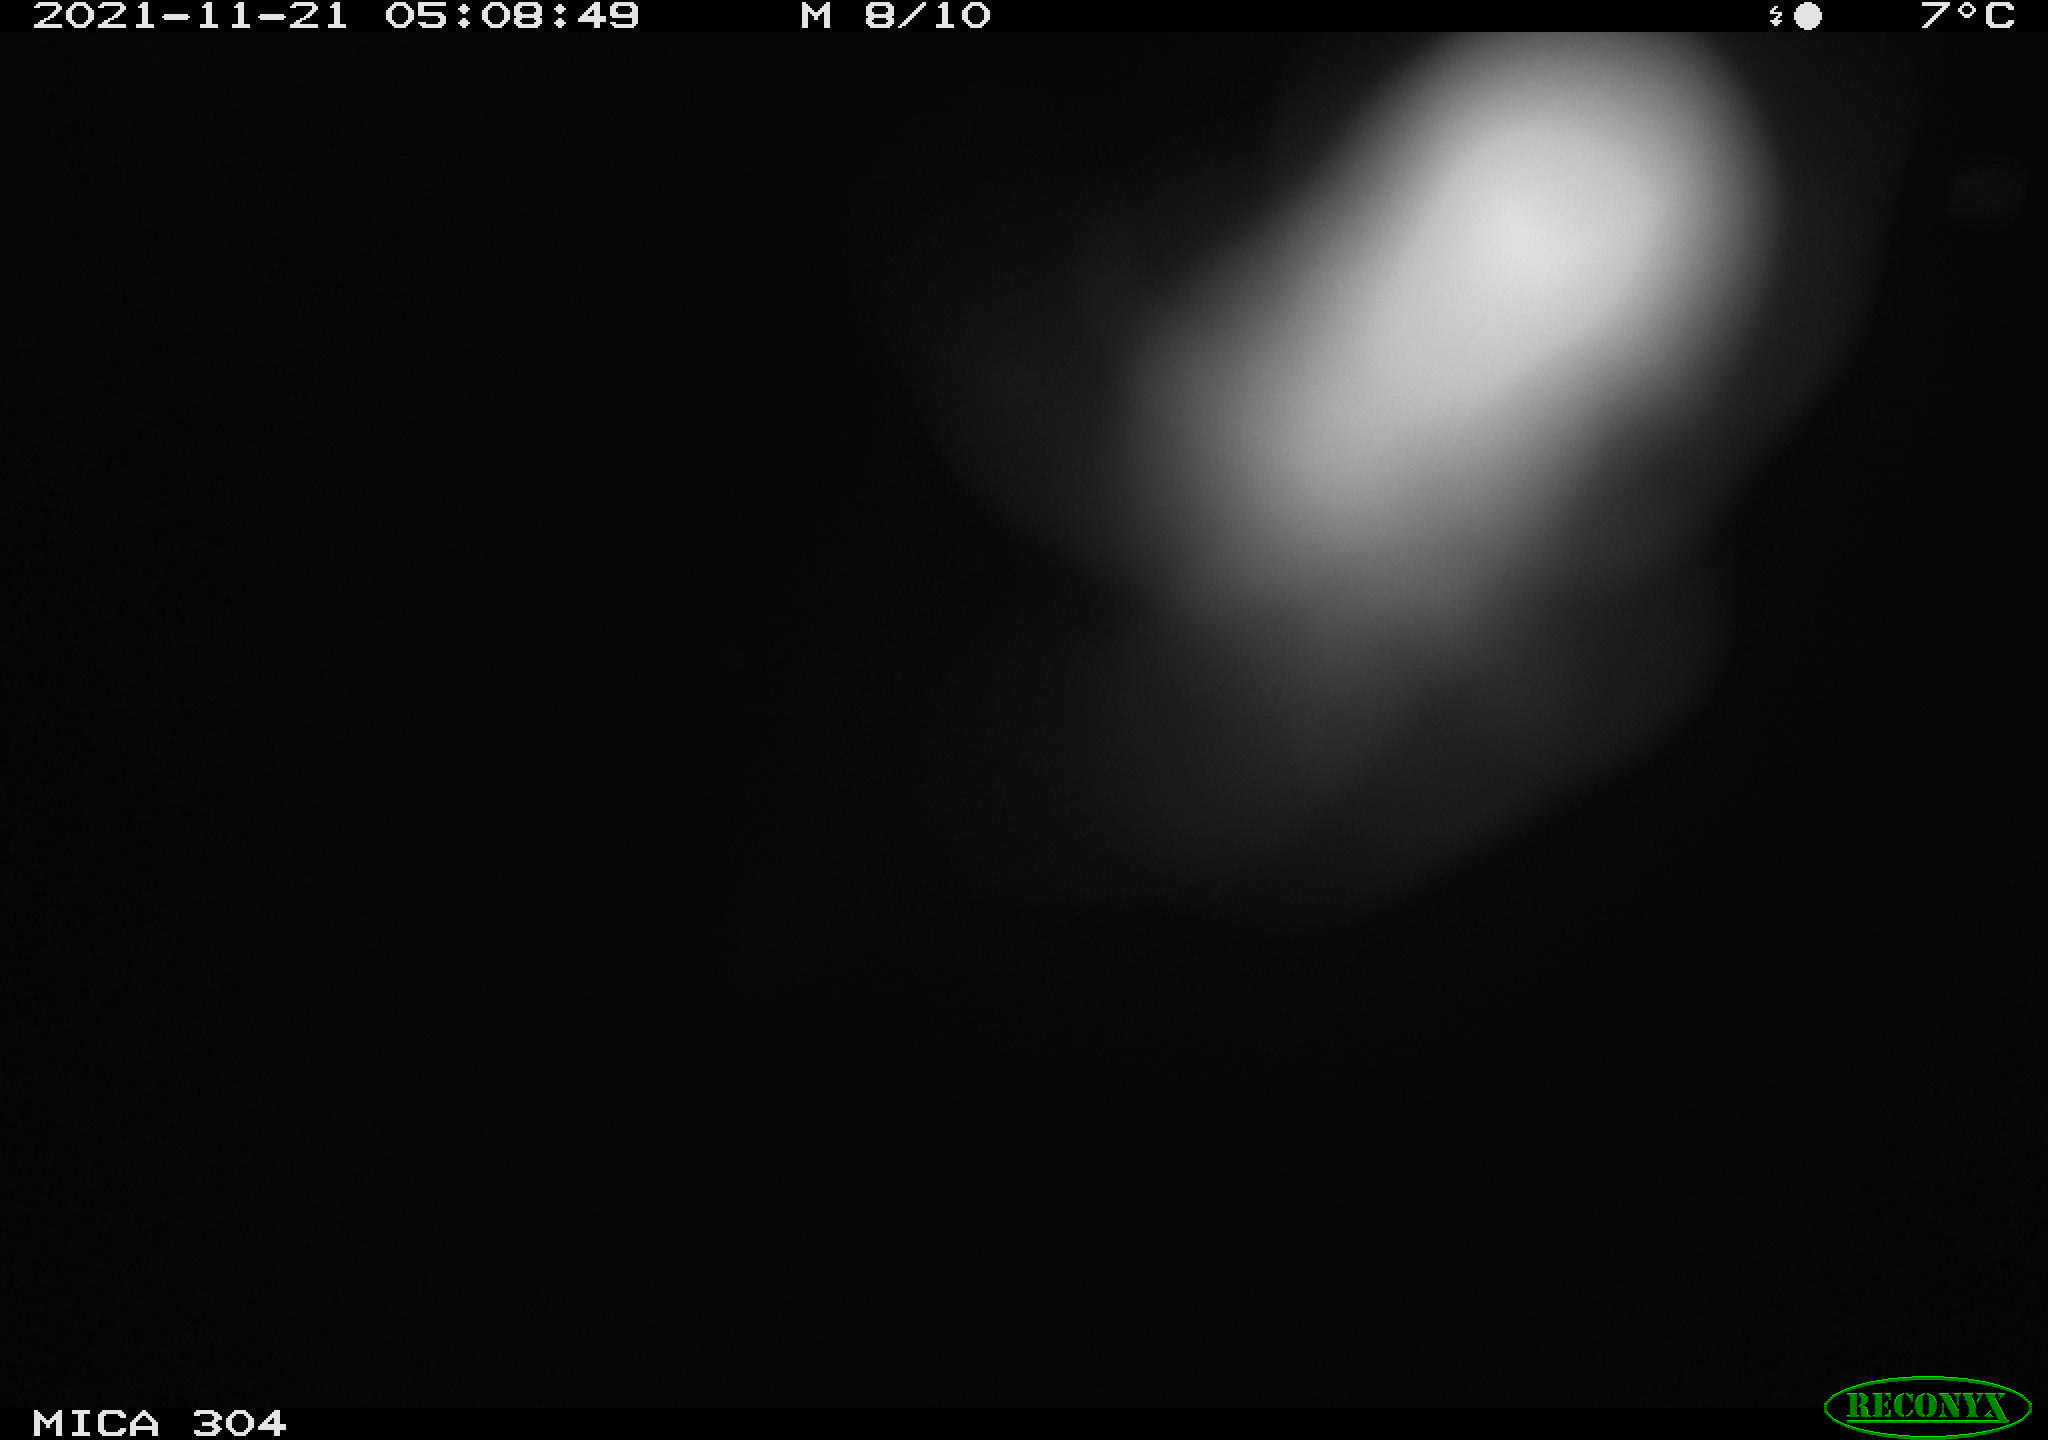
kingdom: Animalia
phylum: Chordata
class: Aves
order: Anseriformes
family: Anatidae
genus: Anas
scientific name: Anas platyrhynchos
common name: Mallard
